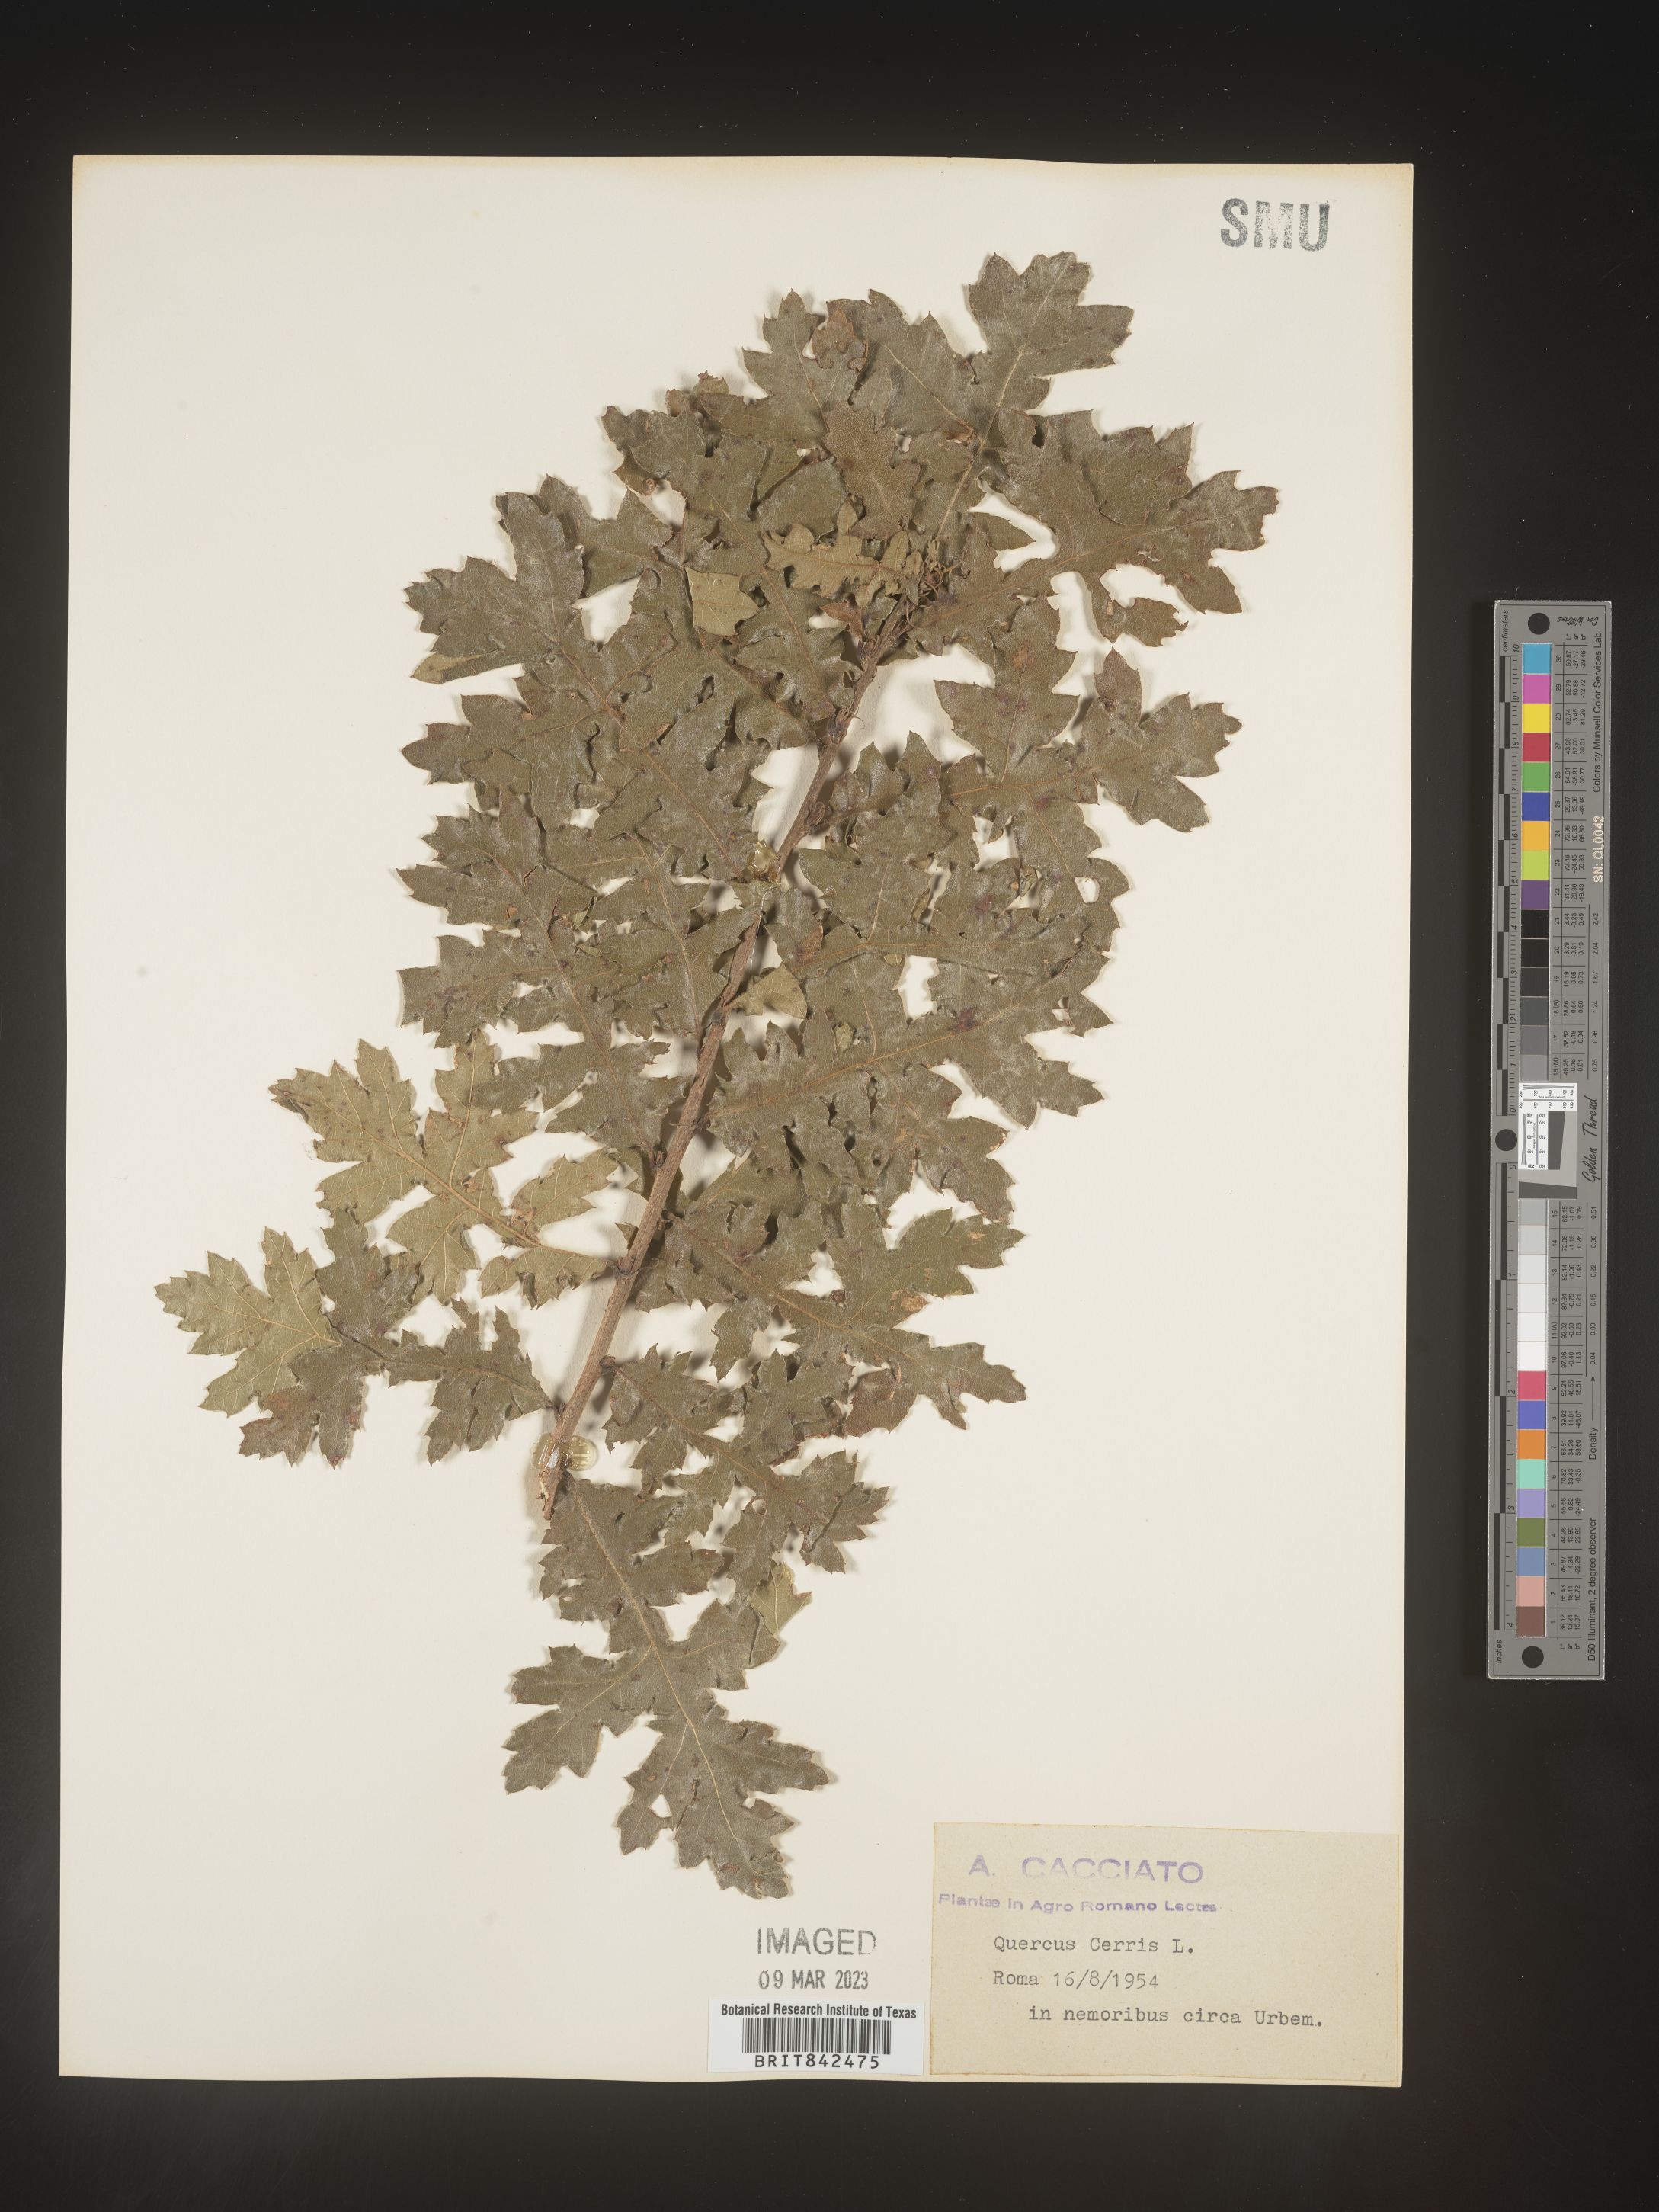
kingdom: Plantae
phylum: Tracheophyta
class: Magnoliopsida
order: Fagales
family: Fagaceae
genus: Quercus
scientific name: Quercus
